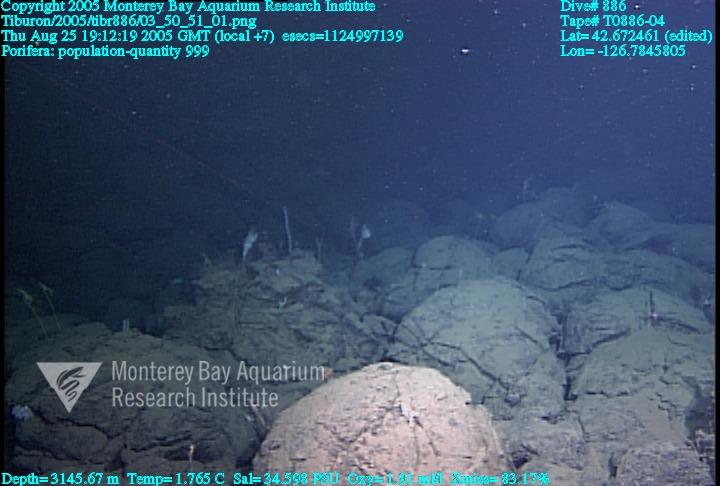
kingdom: Animalia
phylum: Porifera
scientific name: Porifera
